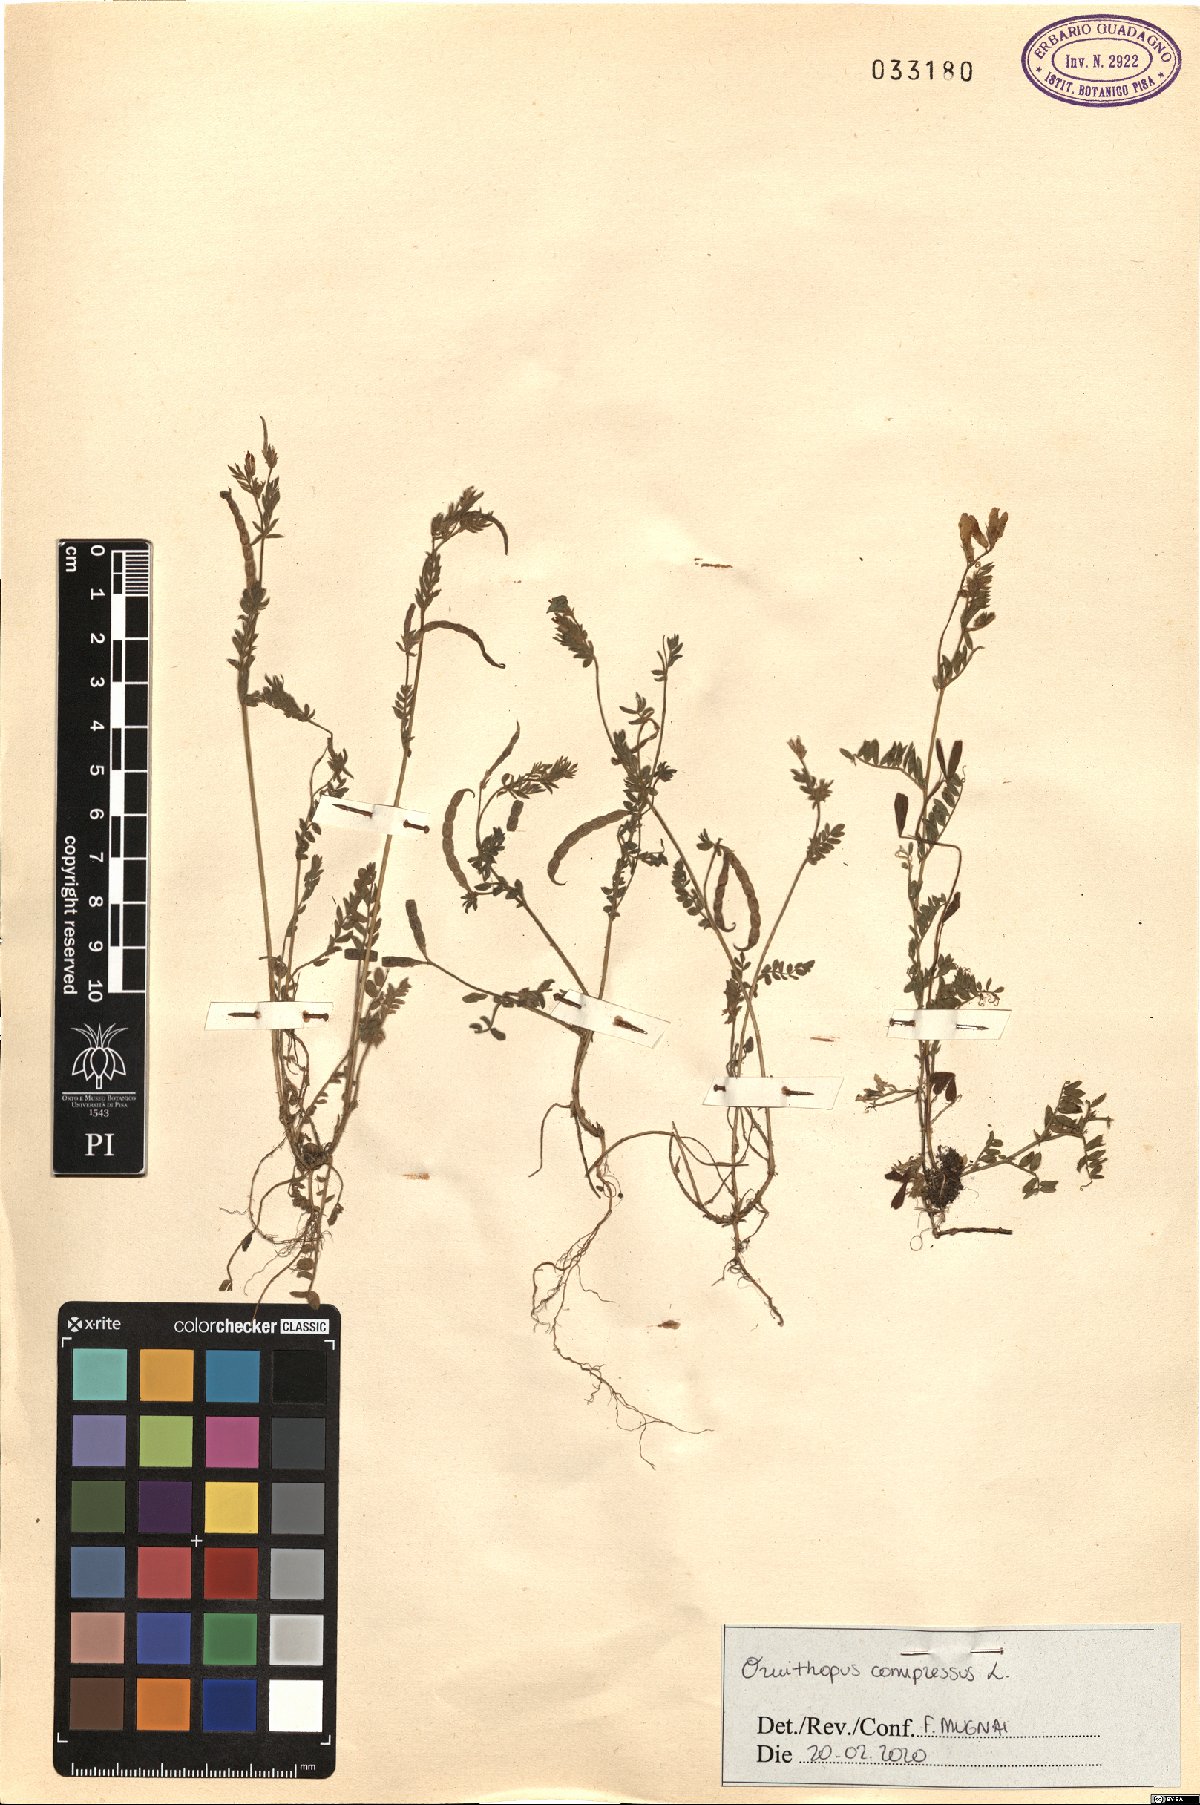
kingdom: Plantae
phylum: Tracheophyta
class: Magnoliopsida
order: Fabales
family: Fabaceae
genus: Ornithopus
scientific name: Ornithopus compressus
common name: Yellow serradella
